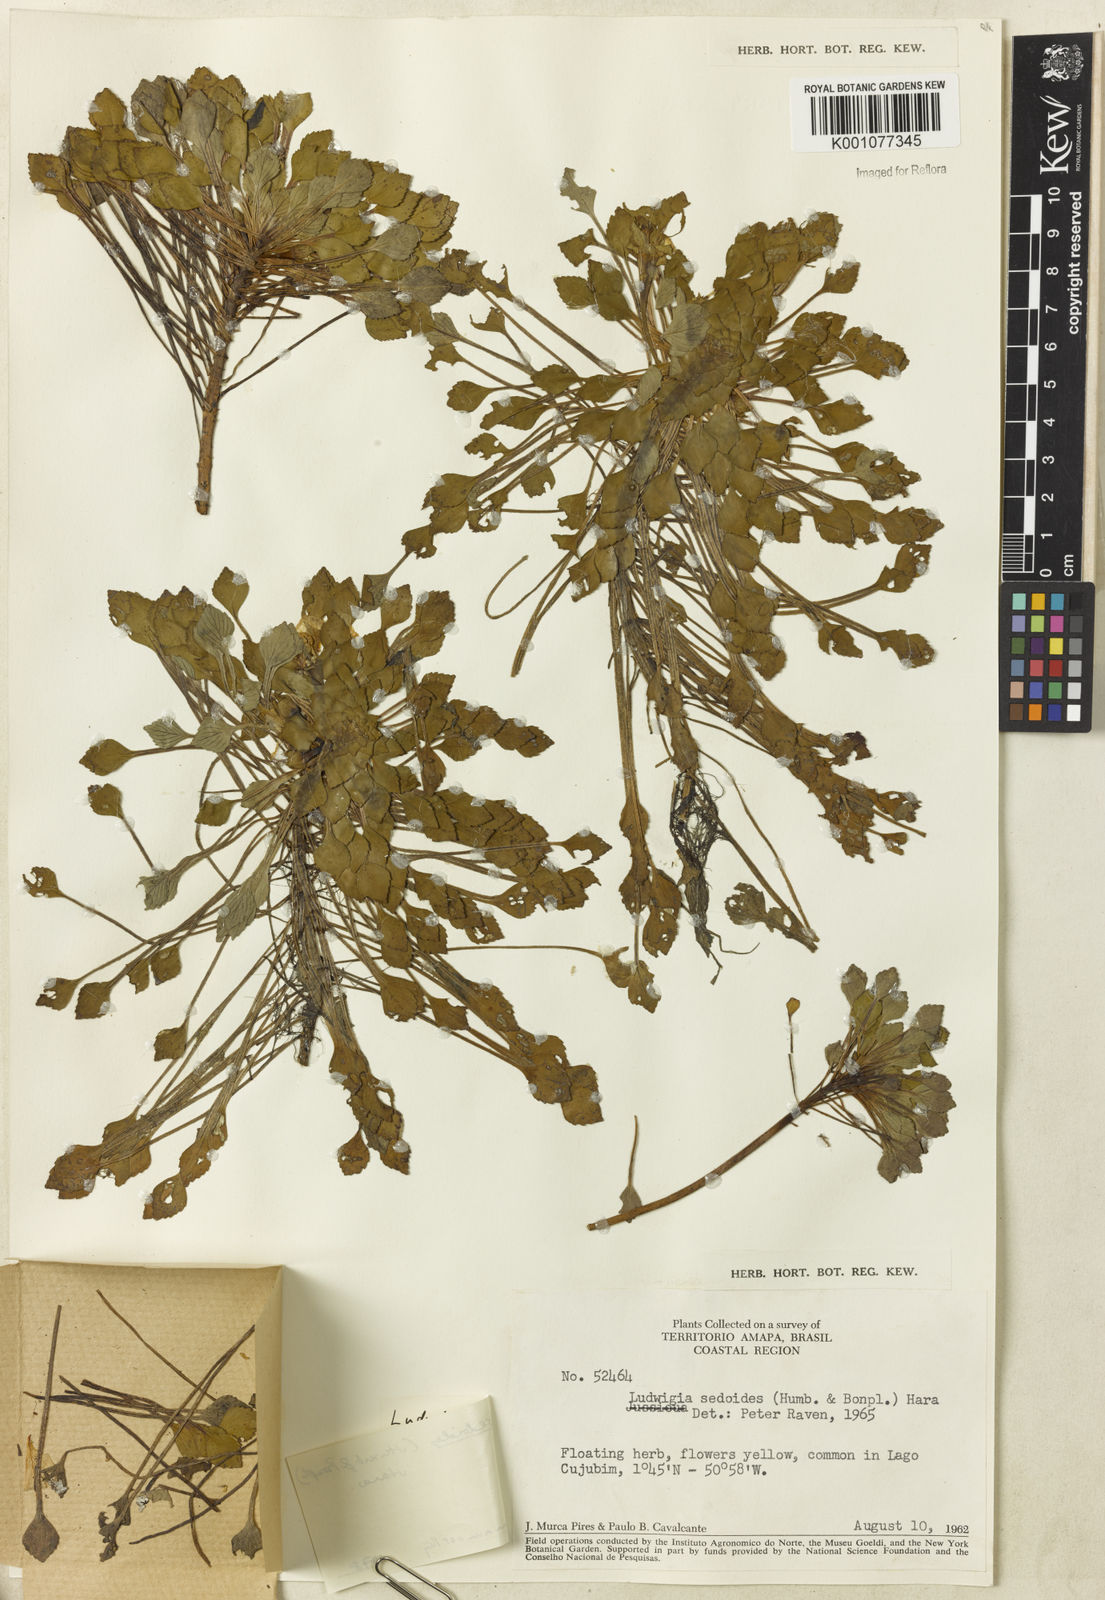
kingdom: Plantae
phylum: Tracheophyta
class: Magnoliopsida
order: Myrtales
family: Onagraceae
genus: Ludwigia
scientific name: Ludwigia sedoides
